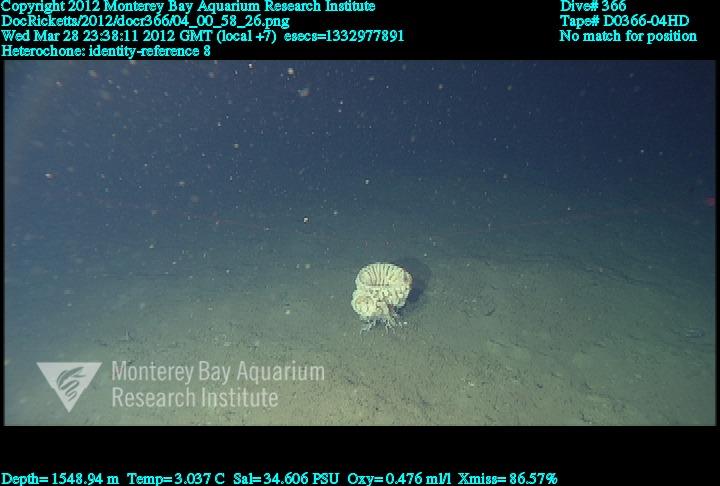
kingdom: Animalia
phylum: Porifera
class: Hexactinellida
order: Sceptrulophora
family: Aphrocallistidae
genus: Heterochone
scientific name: Heterochone
